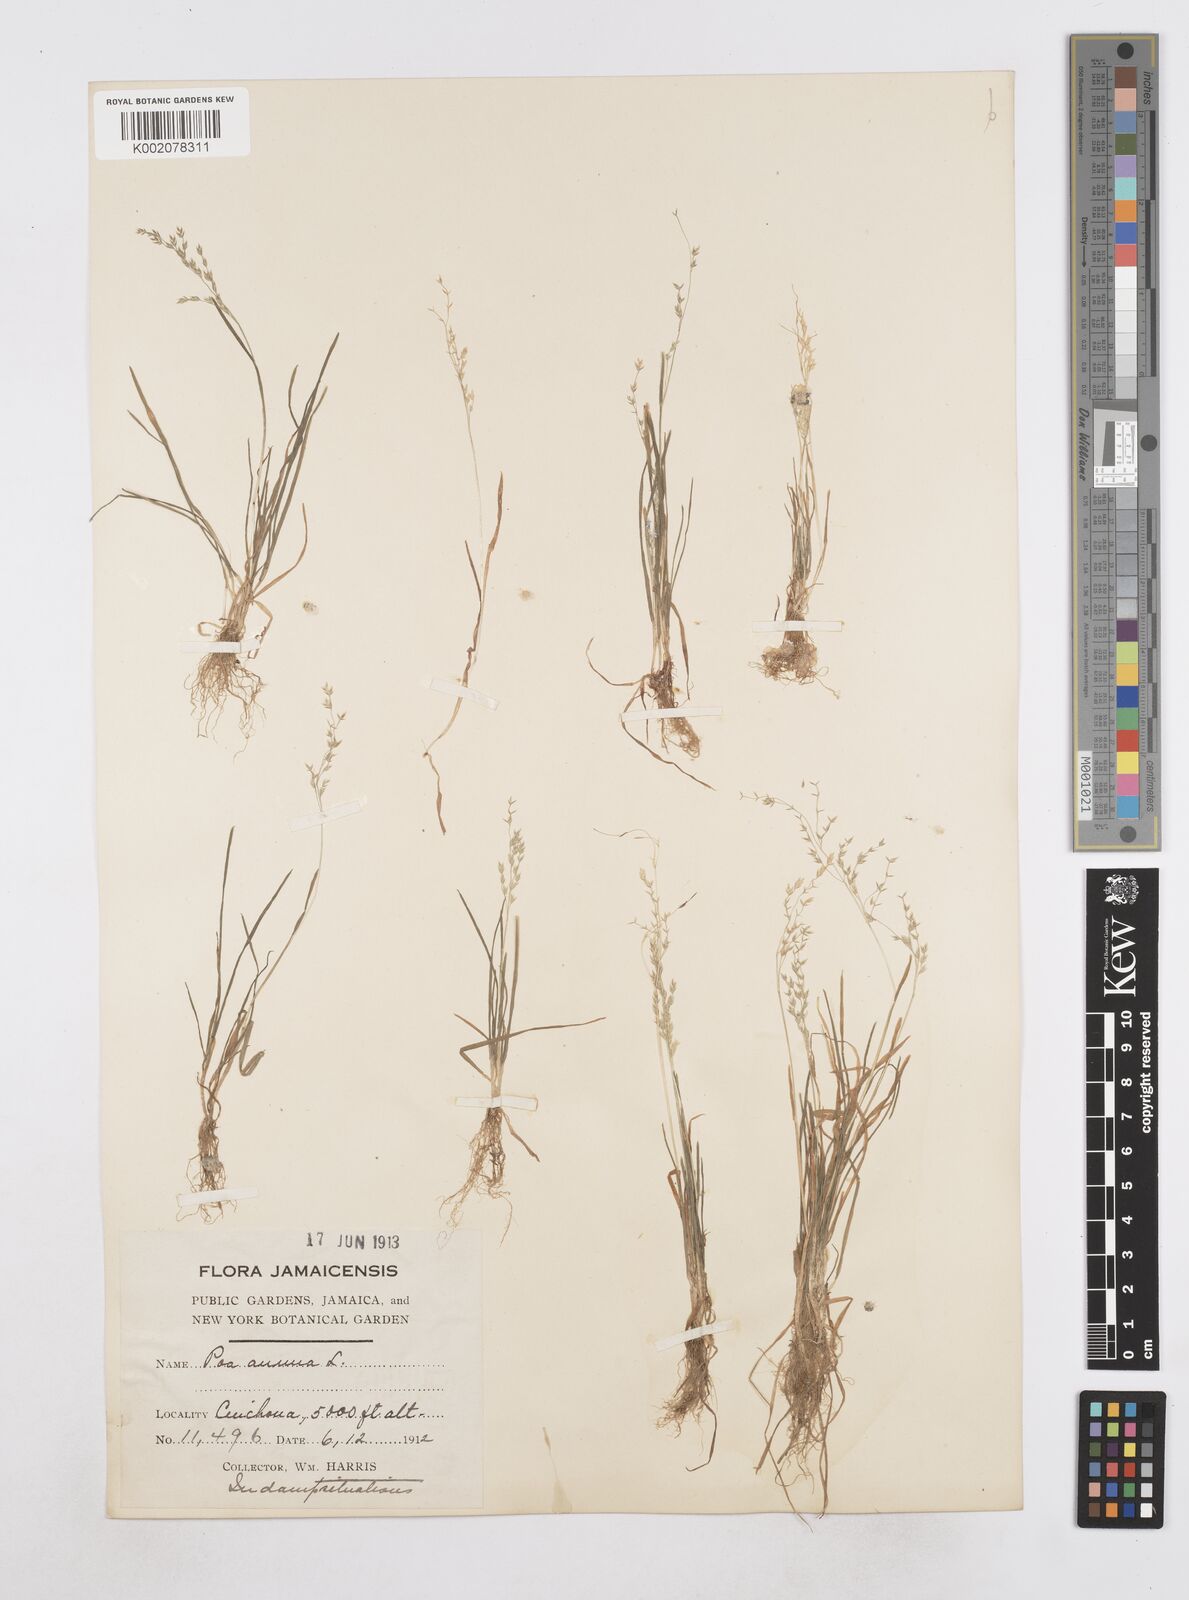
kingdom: Plantae
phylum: Tracheophyta
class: Liliopsida
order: Poales
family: Poaceae
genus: Poa
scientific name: Poa annua
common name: Annual bluegrass
